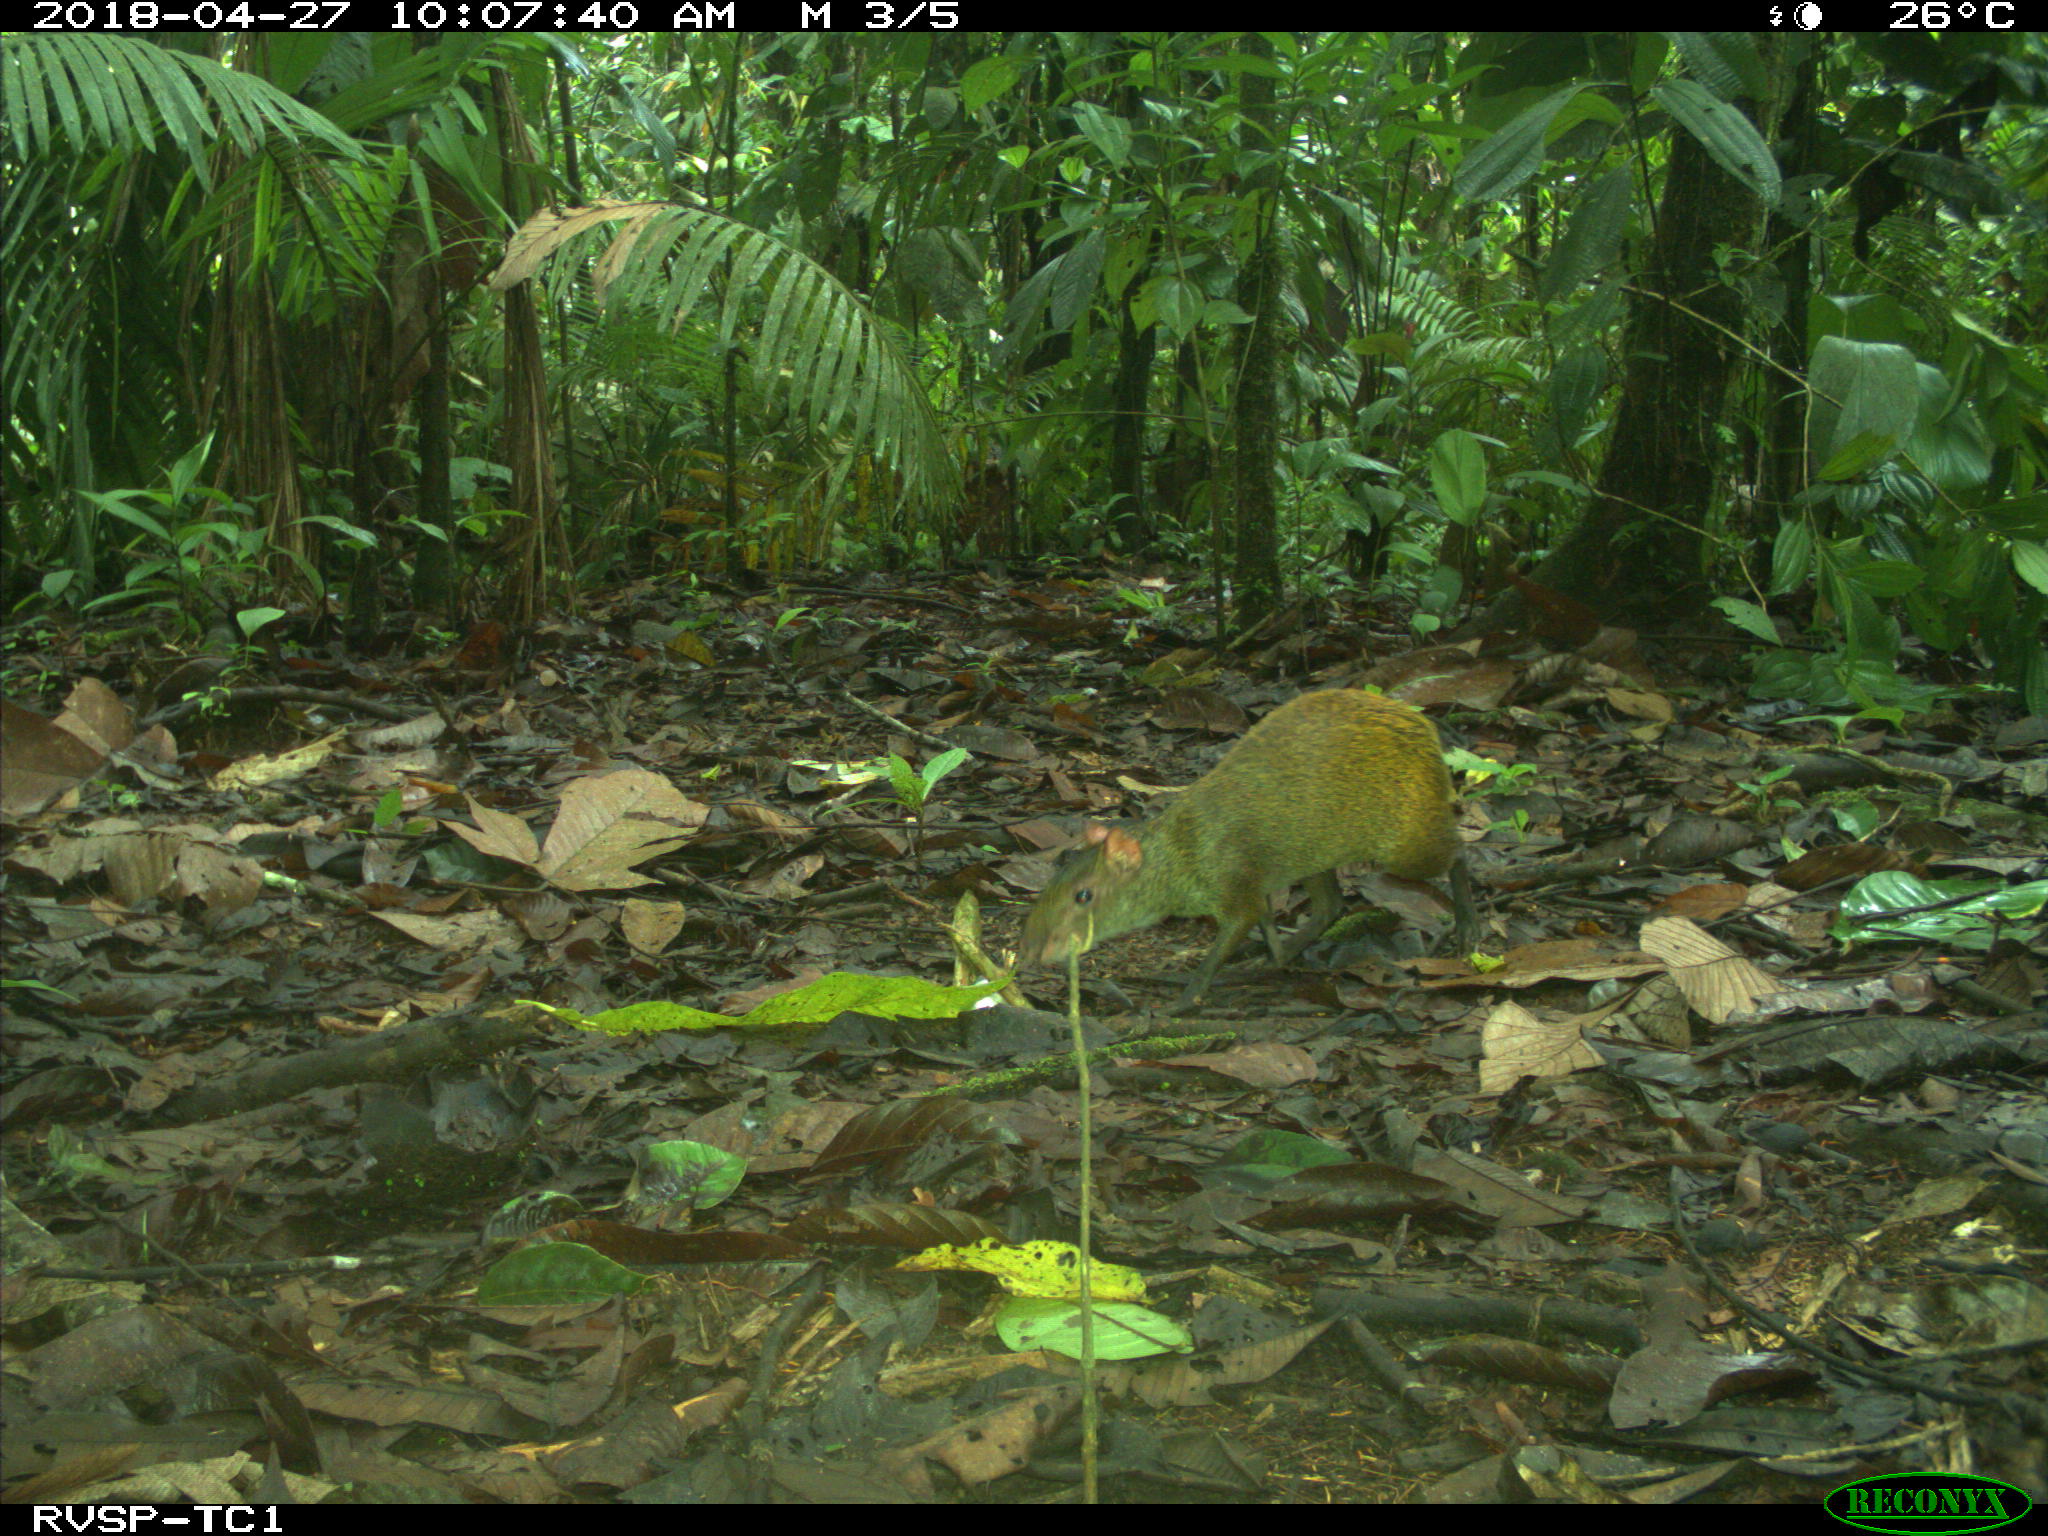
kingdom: Animalia
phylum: Chordata
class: Mammalia
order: Rodentia
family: Dasyproctidae
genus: Dasyprocta
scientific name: Dasyprocta punctata
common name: Central american agouti
